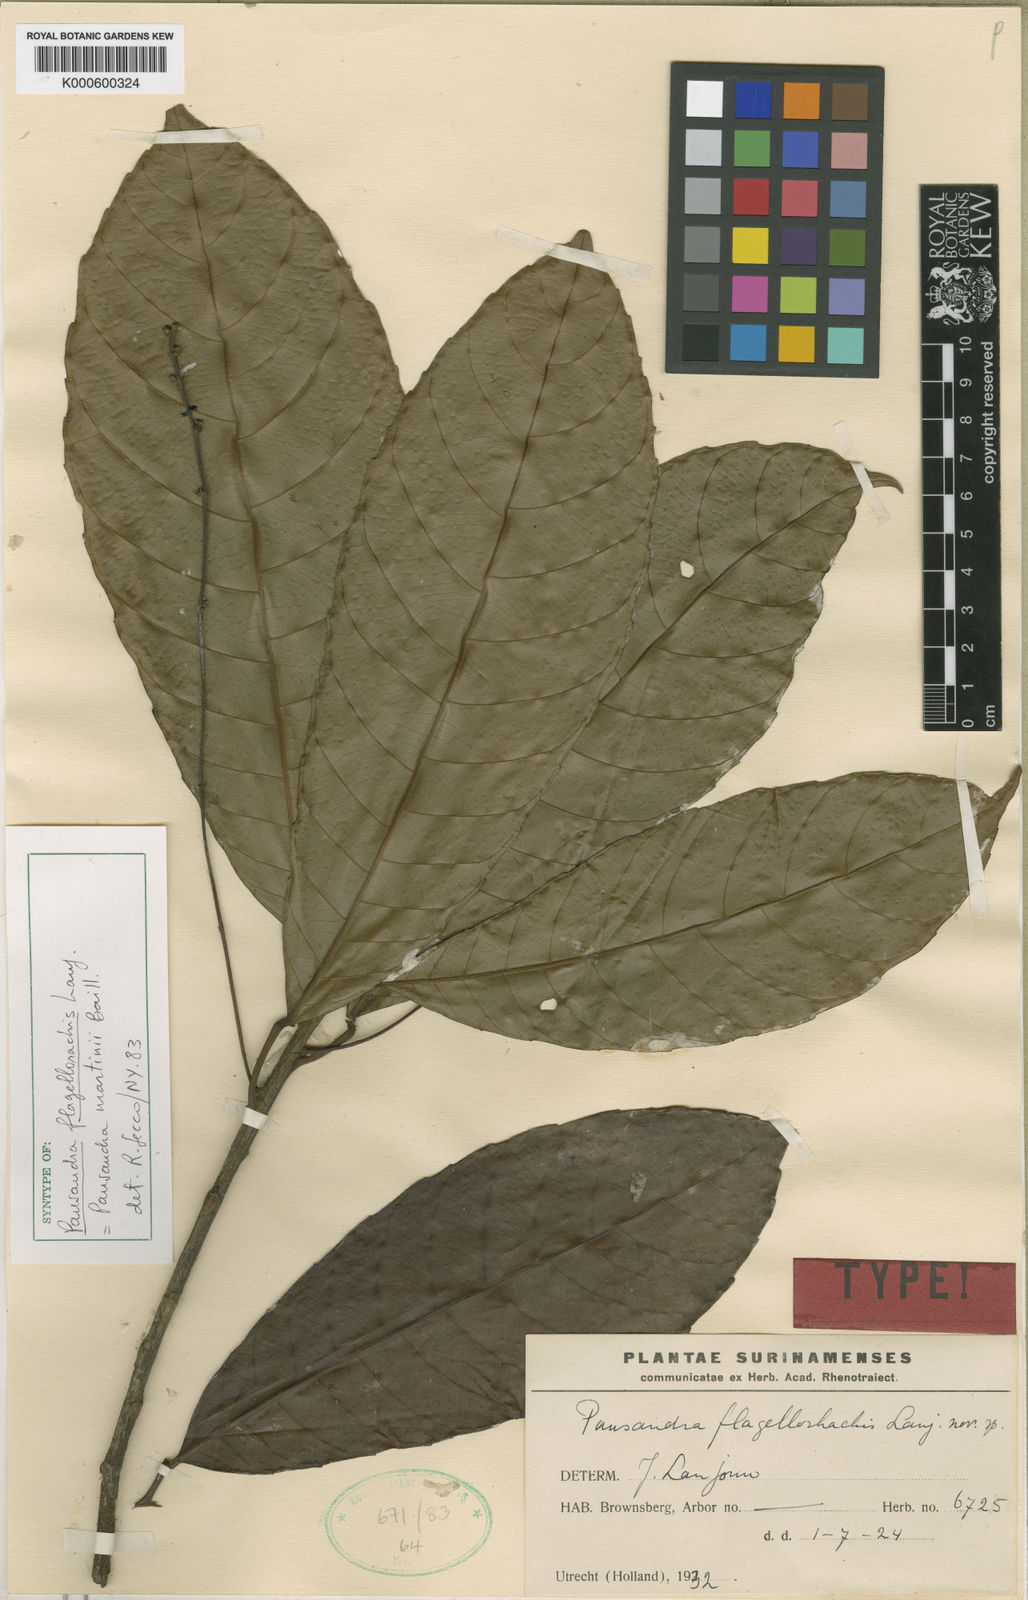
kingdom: Plantae
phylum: Tracheophyta
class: Magnoliopsida
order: Malpighiales
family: Euphorbiaceae
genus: Pausandra
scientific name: Pausandra martini
